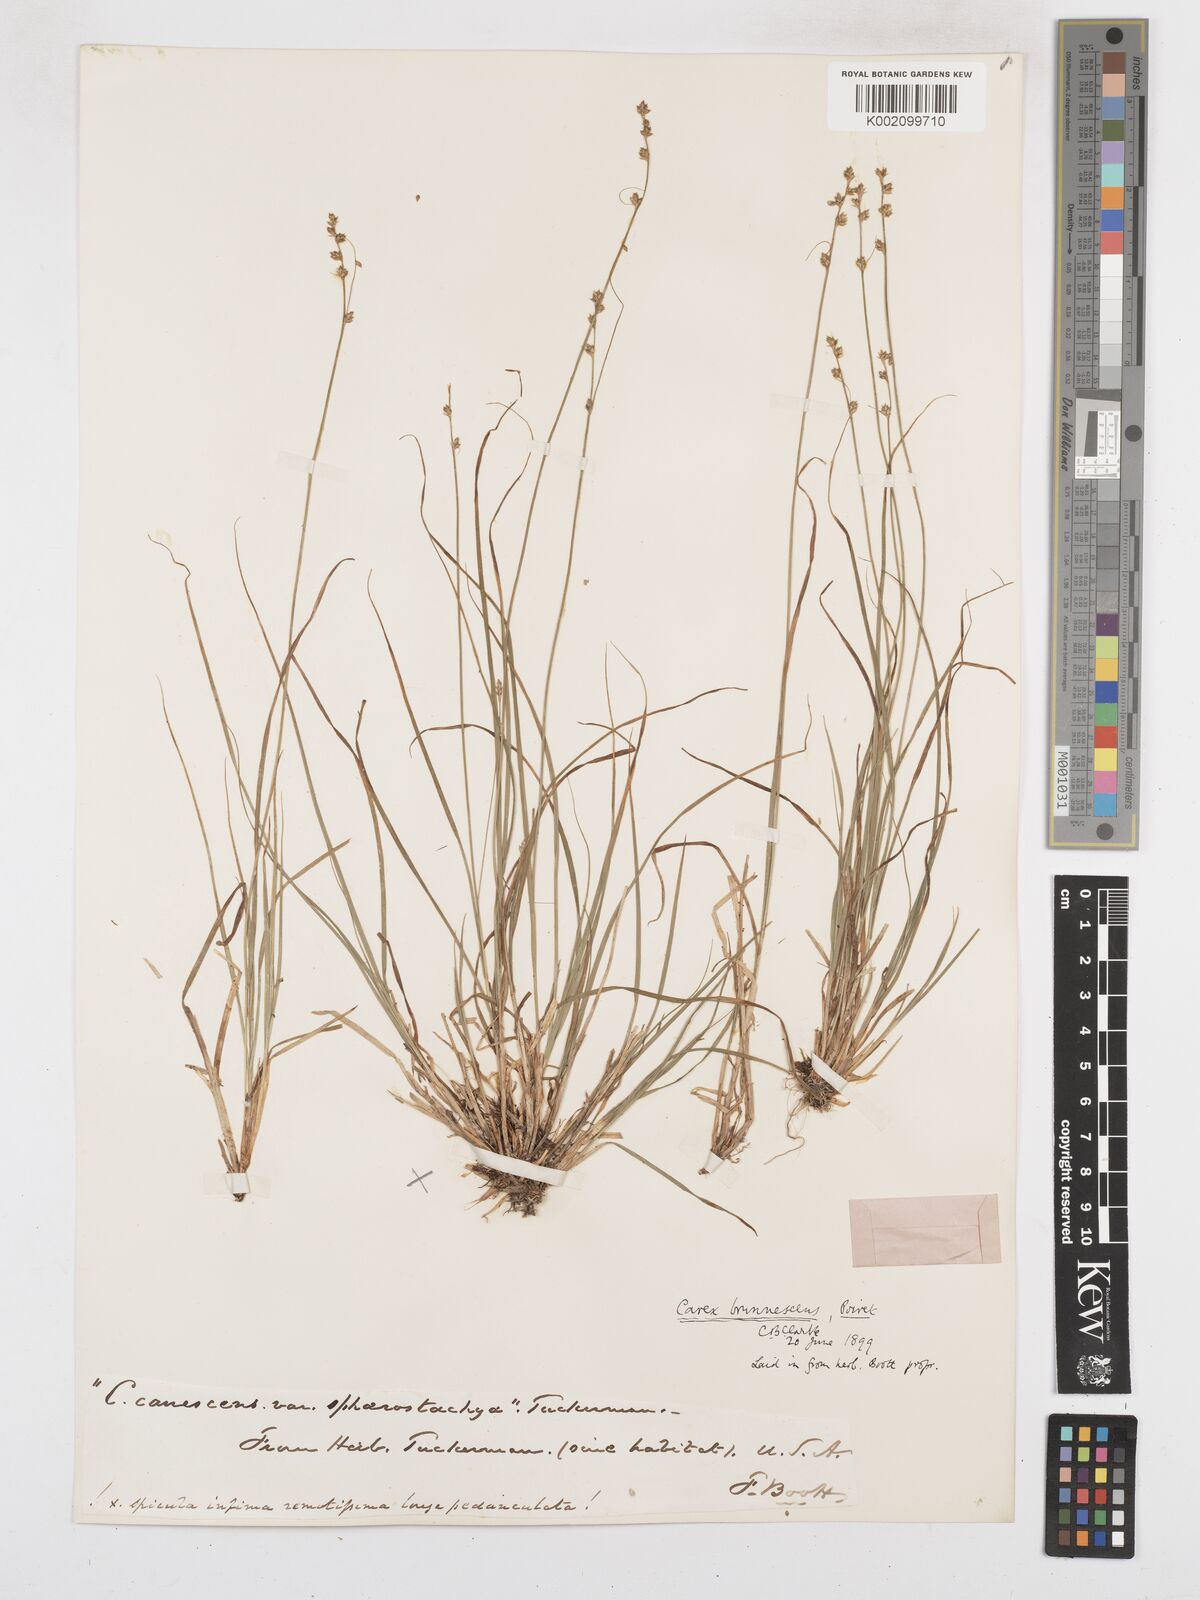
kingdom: Plantae
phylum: Tracheophyta
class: Liliopsida
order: Poales
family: Cyperaceae
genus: Carex
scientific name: Carex brunnescens
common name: Brown sedge
